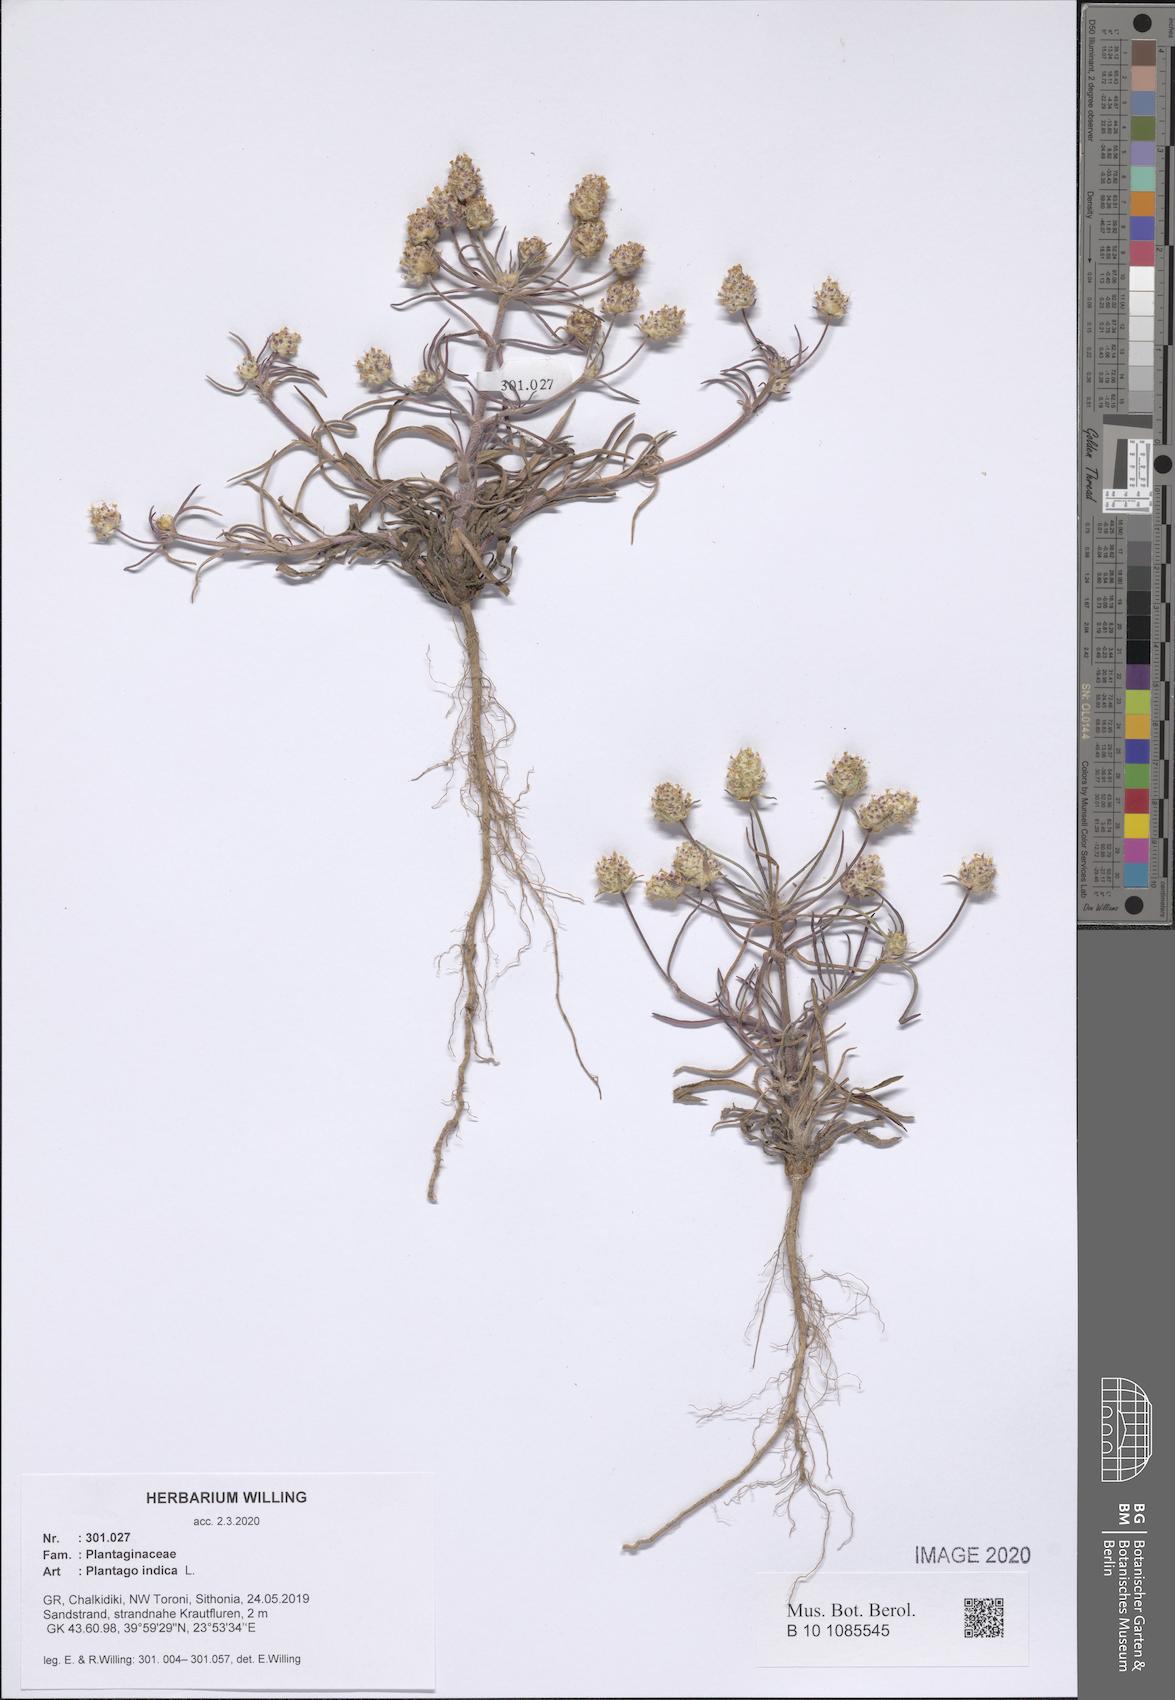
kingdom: Plantae
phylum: Tracheophyta
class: Magnoliopsida
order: Lamiales
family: Plantaginaceae
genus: Plantago
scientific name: Plantago arenaria
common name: Branched plantain
